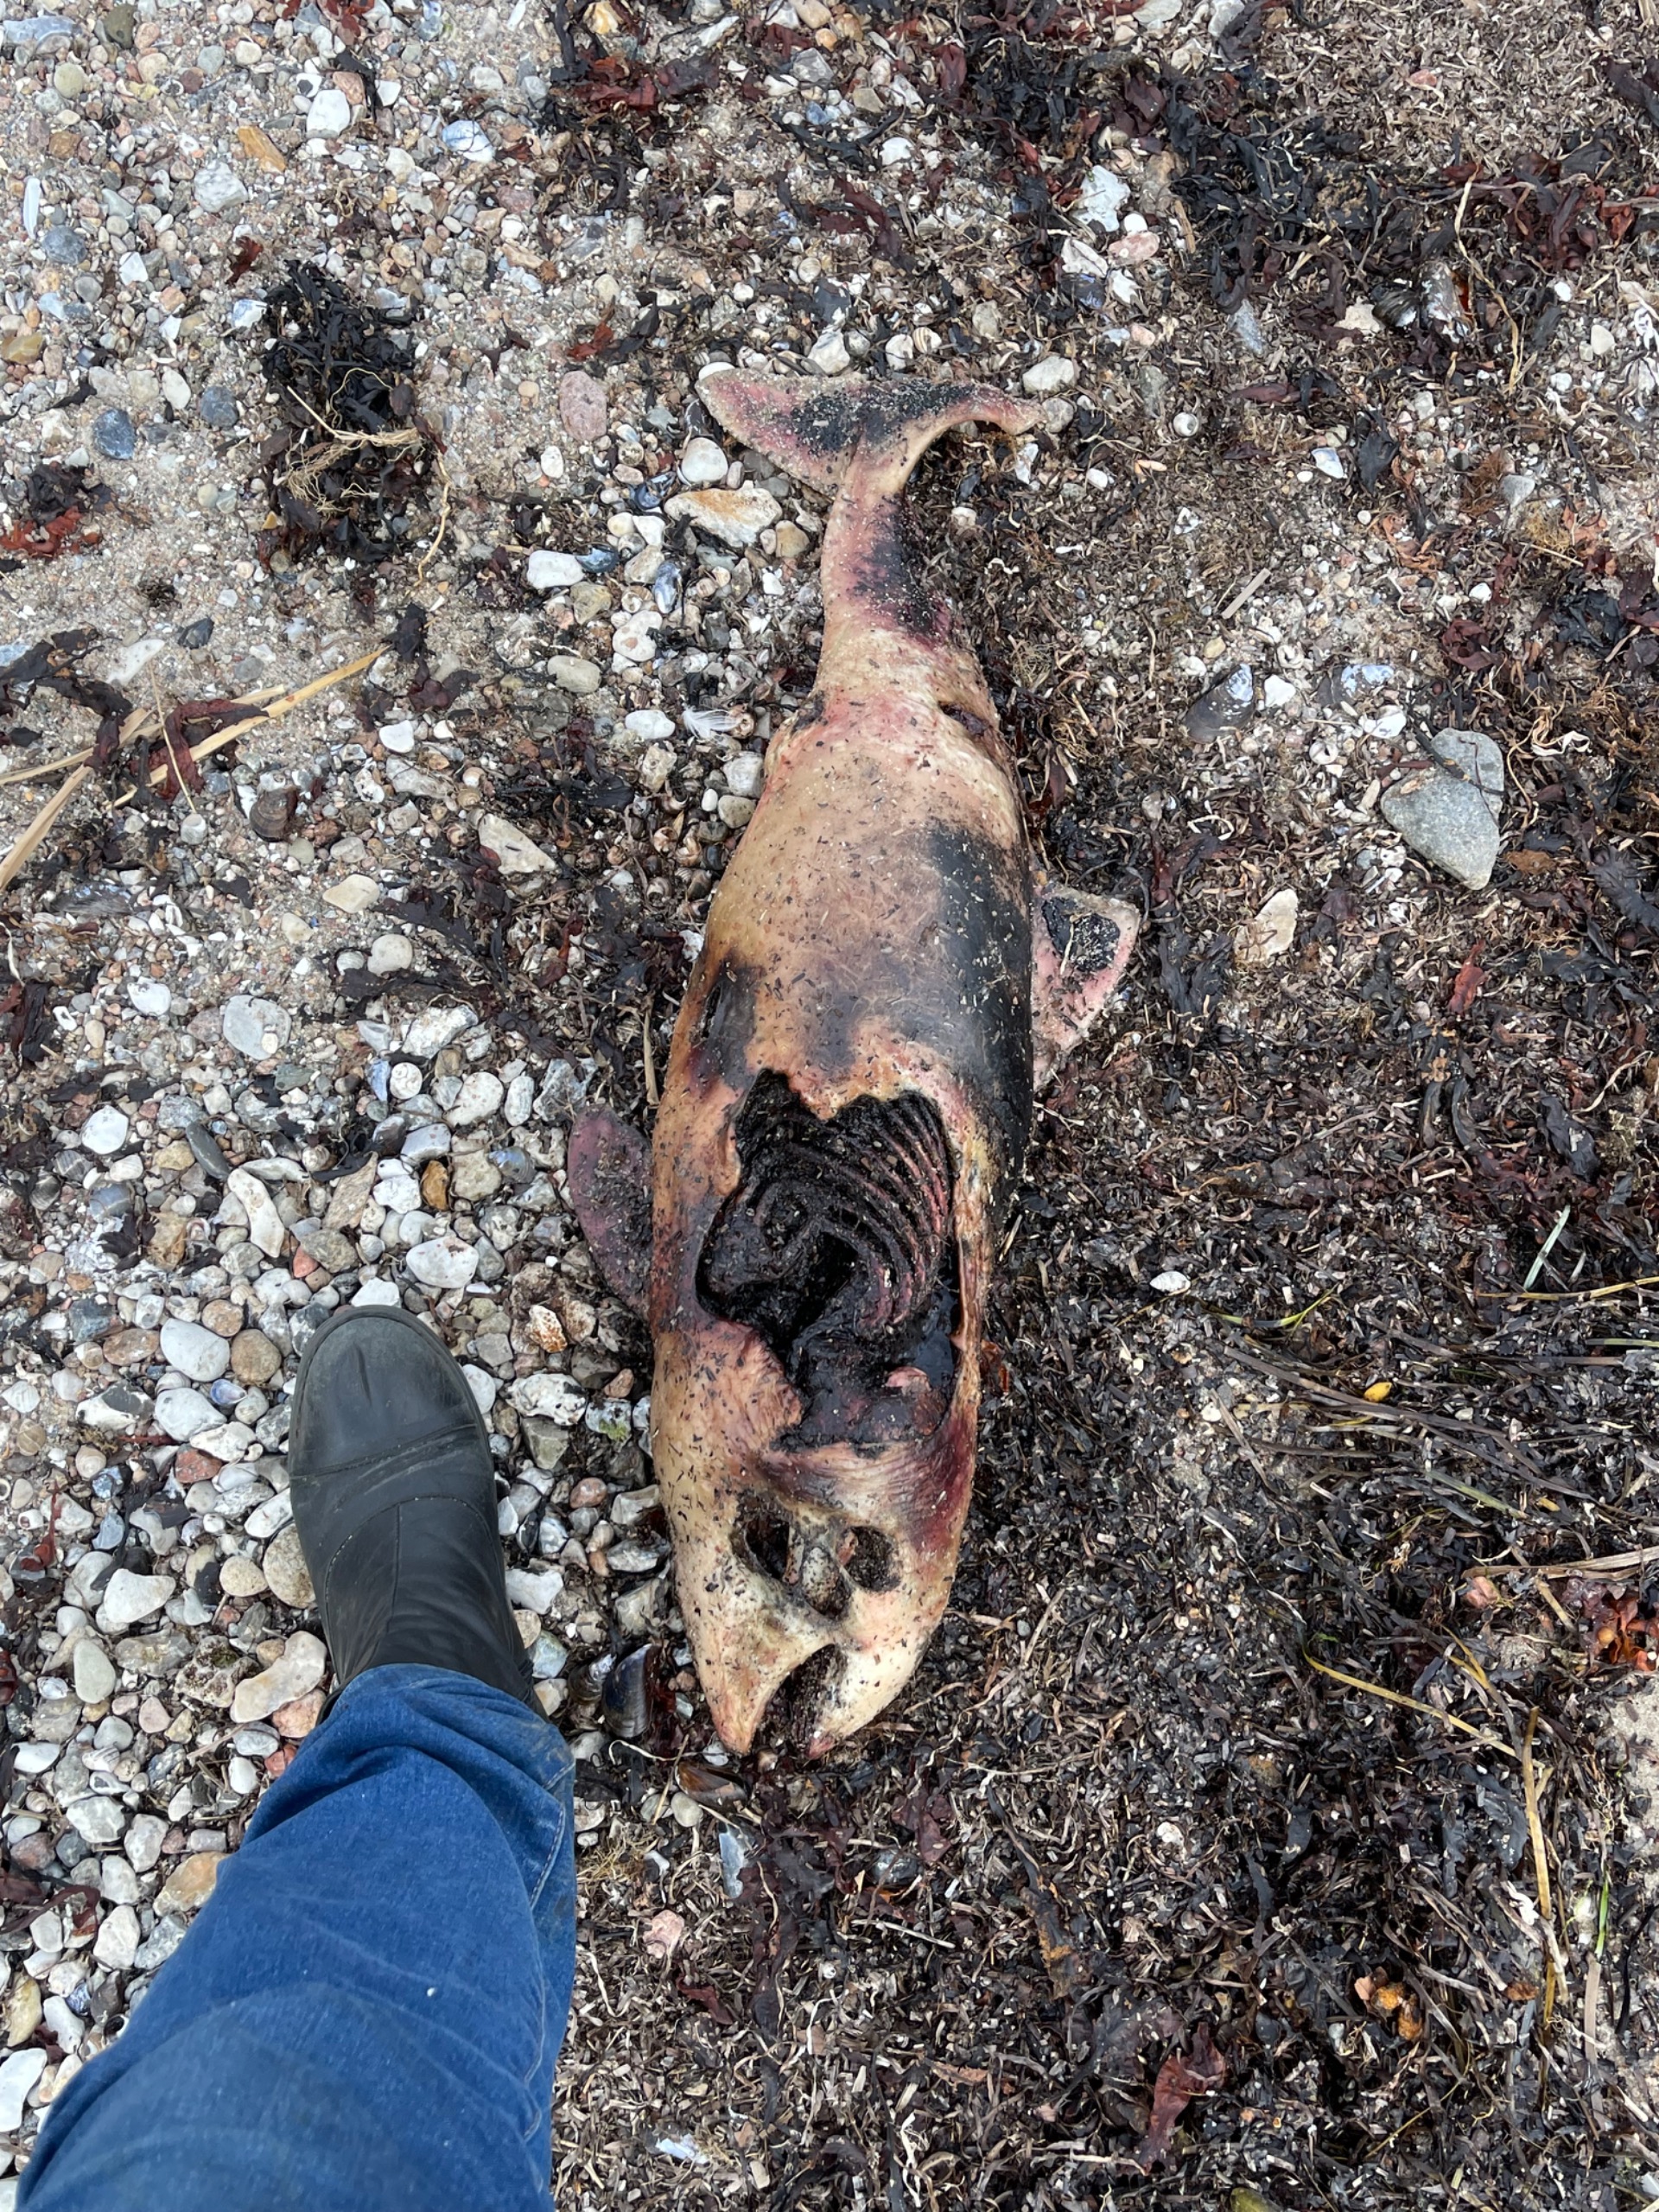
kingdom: Animalia
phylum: Chordata
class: Mammalia
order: Cetacea
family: Phocoenidae
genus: Phocoena
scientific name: Phocoena phocoena
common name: Marsvin
